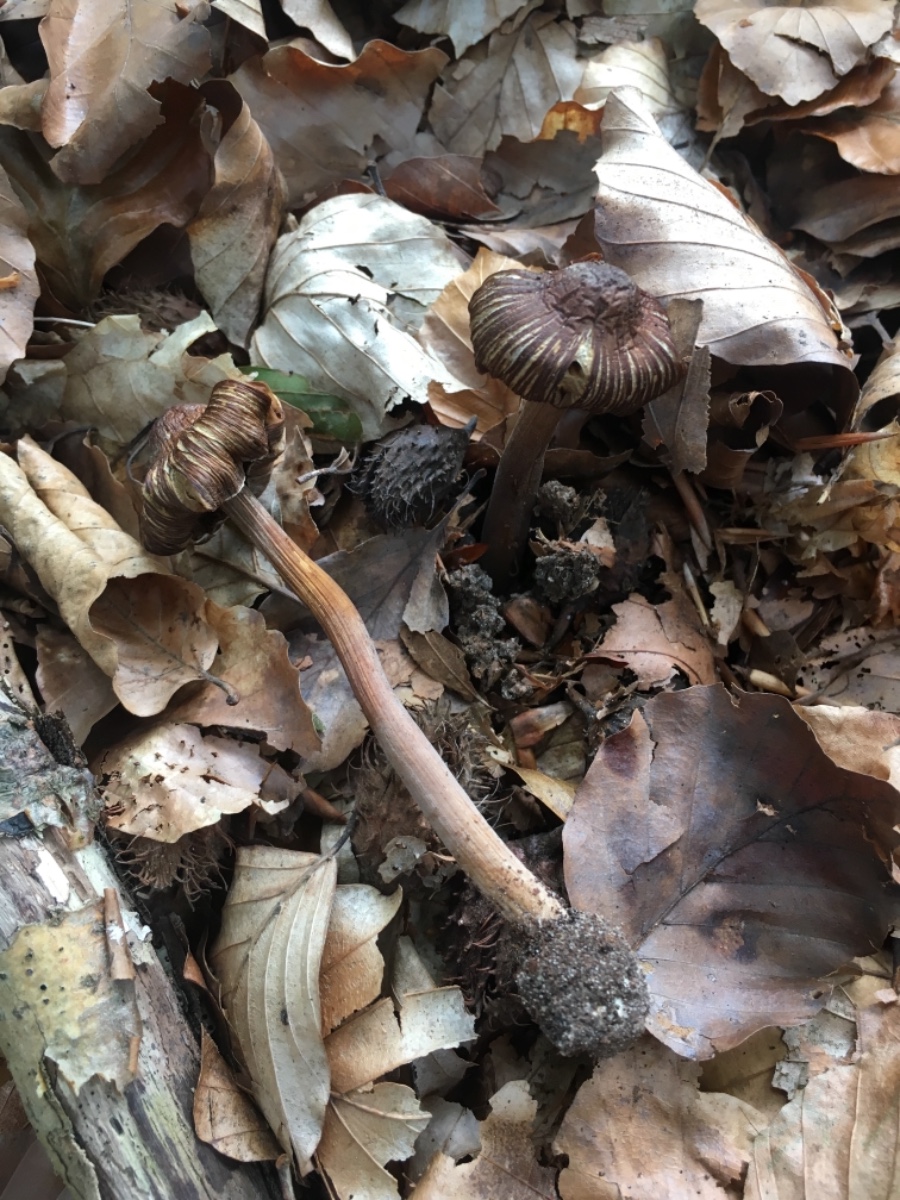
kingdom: Fungi
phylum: Basidiomycota
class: Agaricomycetes
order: Agaricales
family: Inocybaceae
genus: Inocybe
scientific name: Inocybe asterospora
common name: stjernesporet trævlhat
